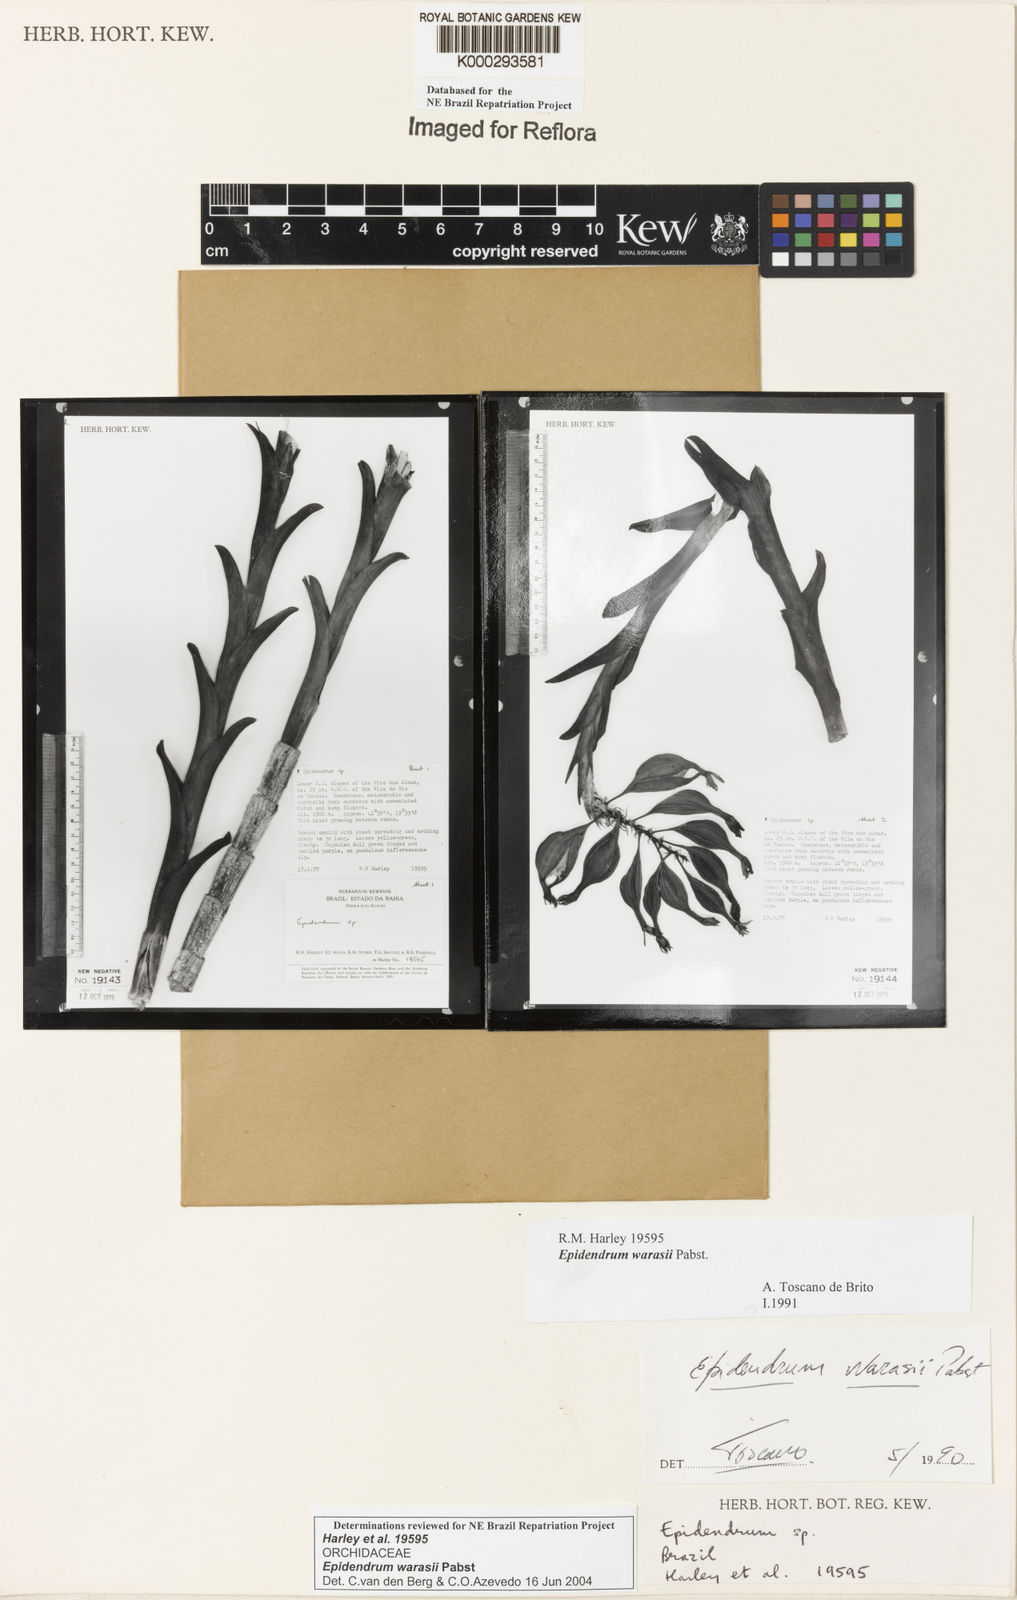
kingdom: Plantae
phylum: Tracheophyta
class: Liliopsida
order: Asparagales
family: Orchidaceae
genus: Epidendrum
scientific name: Epidendrum warrasii
